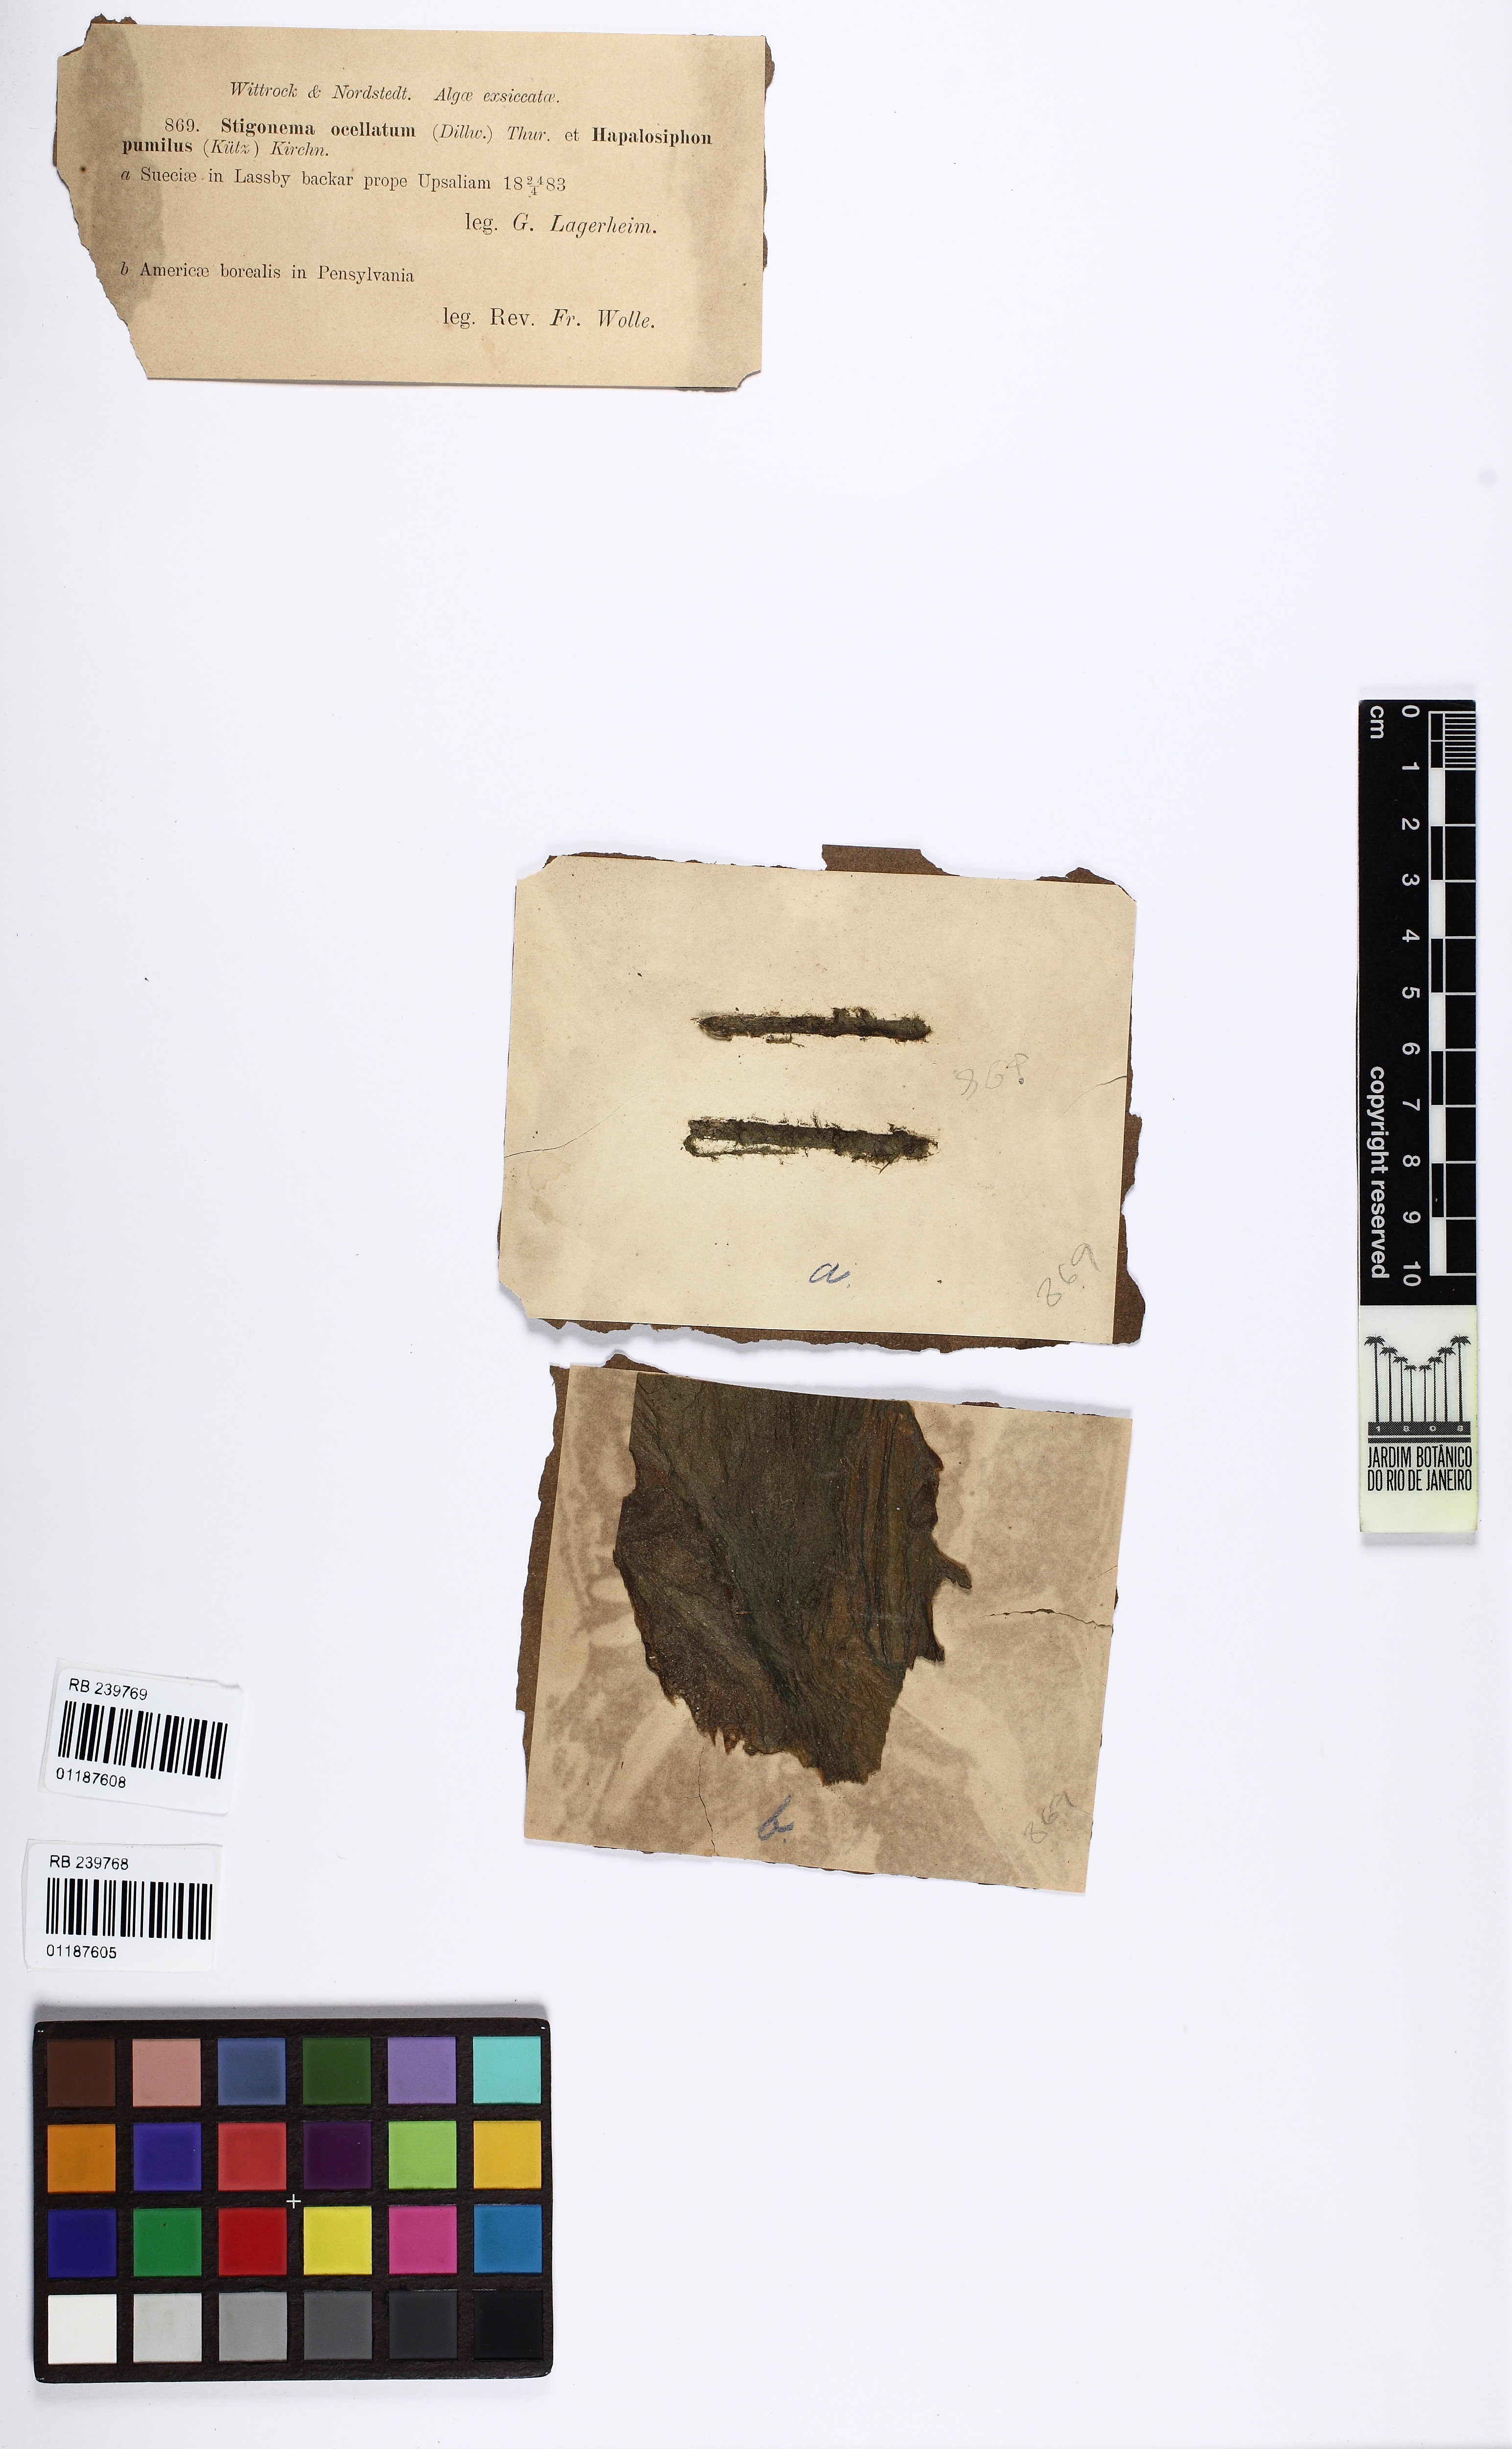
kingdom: Bacteria
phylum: Cyanobacteria
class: Cyanobacteriia
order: Cyanobacteriales
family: Nostocaceae
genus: Stigonema
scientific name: Stigonema ocellatum
